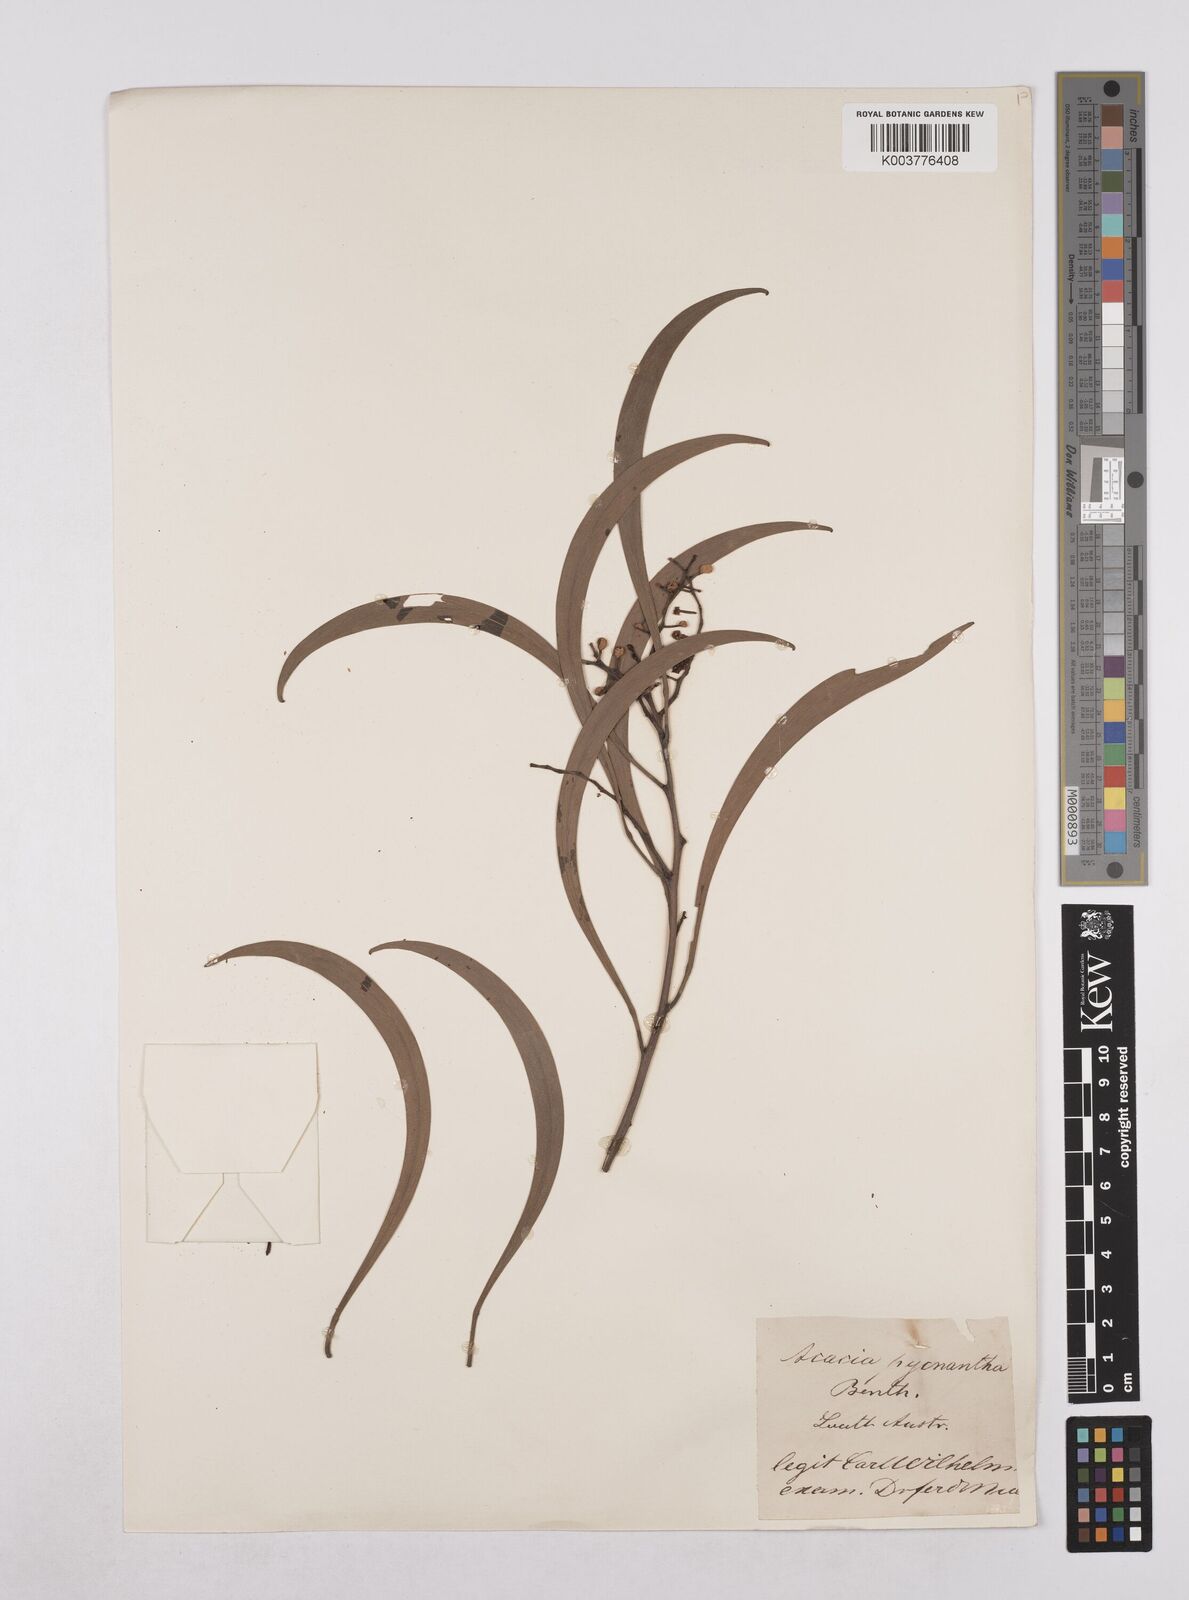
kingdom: Plantae
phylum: Tracheophyta
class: Magnoliopsida
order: Fabales
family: Fabaceae
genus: Acacia
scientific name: Acacia pycnantha
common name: Golden wattle
